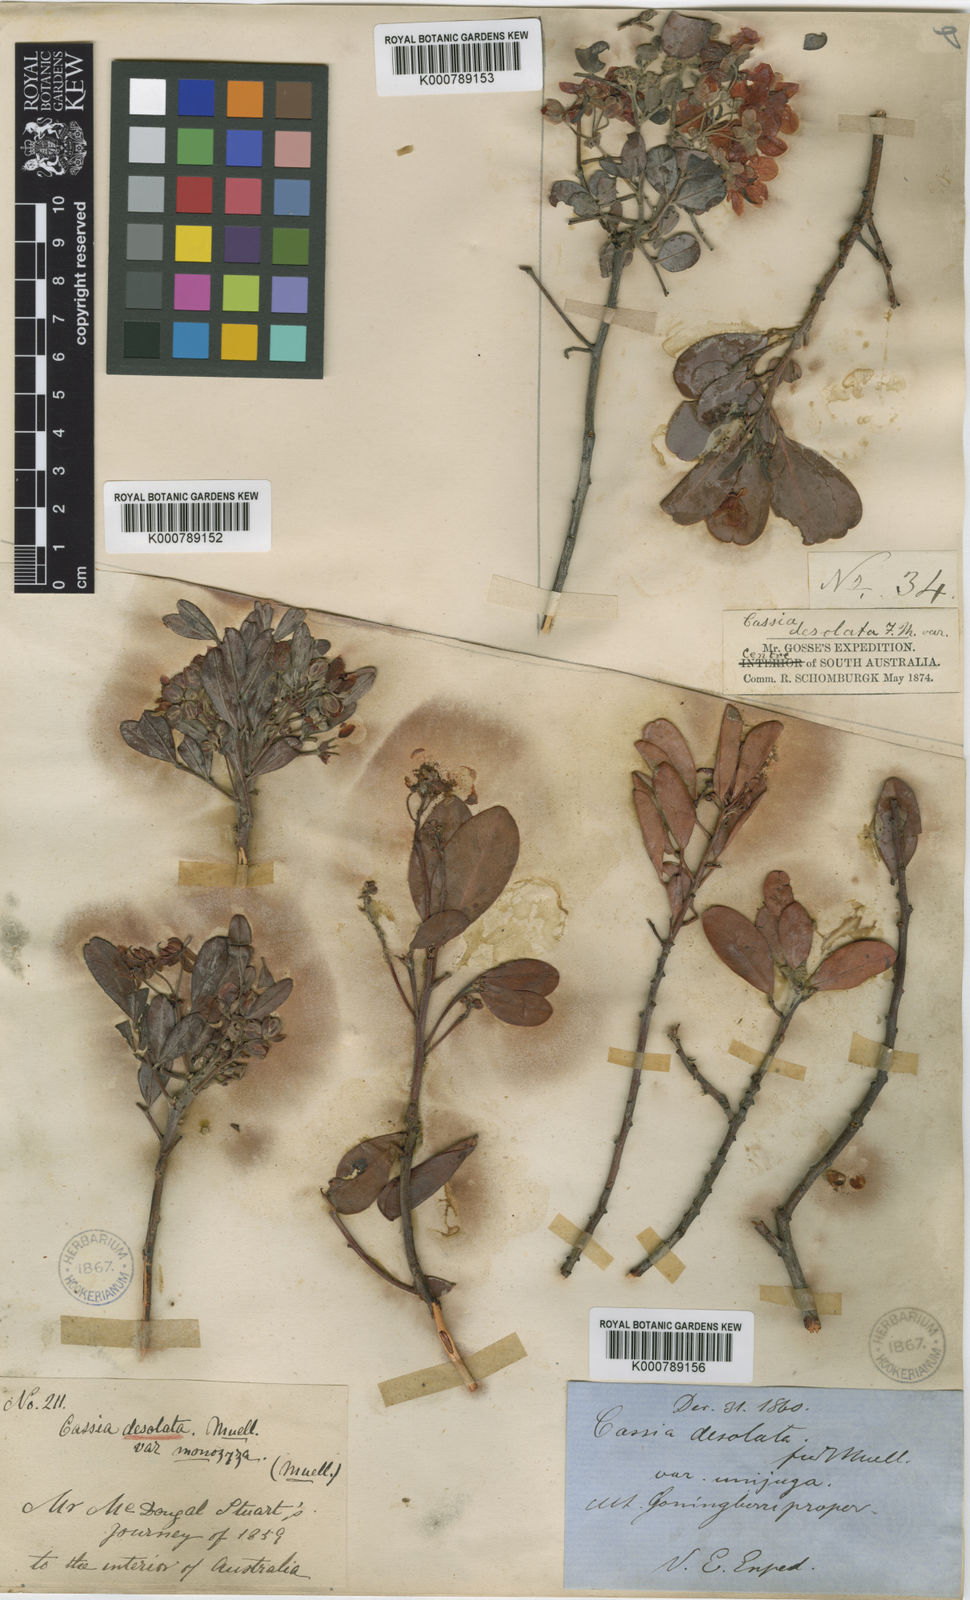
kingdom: Plantae
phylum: Tracheophyta
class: Magnoliopsida
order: Fabales
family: Fabaceae
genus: Senna
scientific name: Senna
